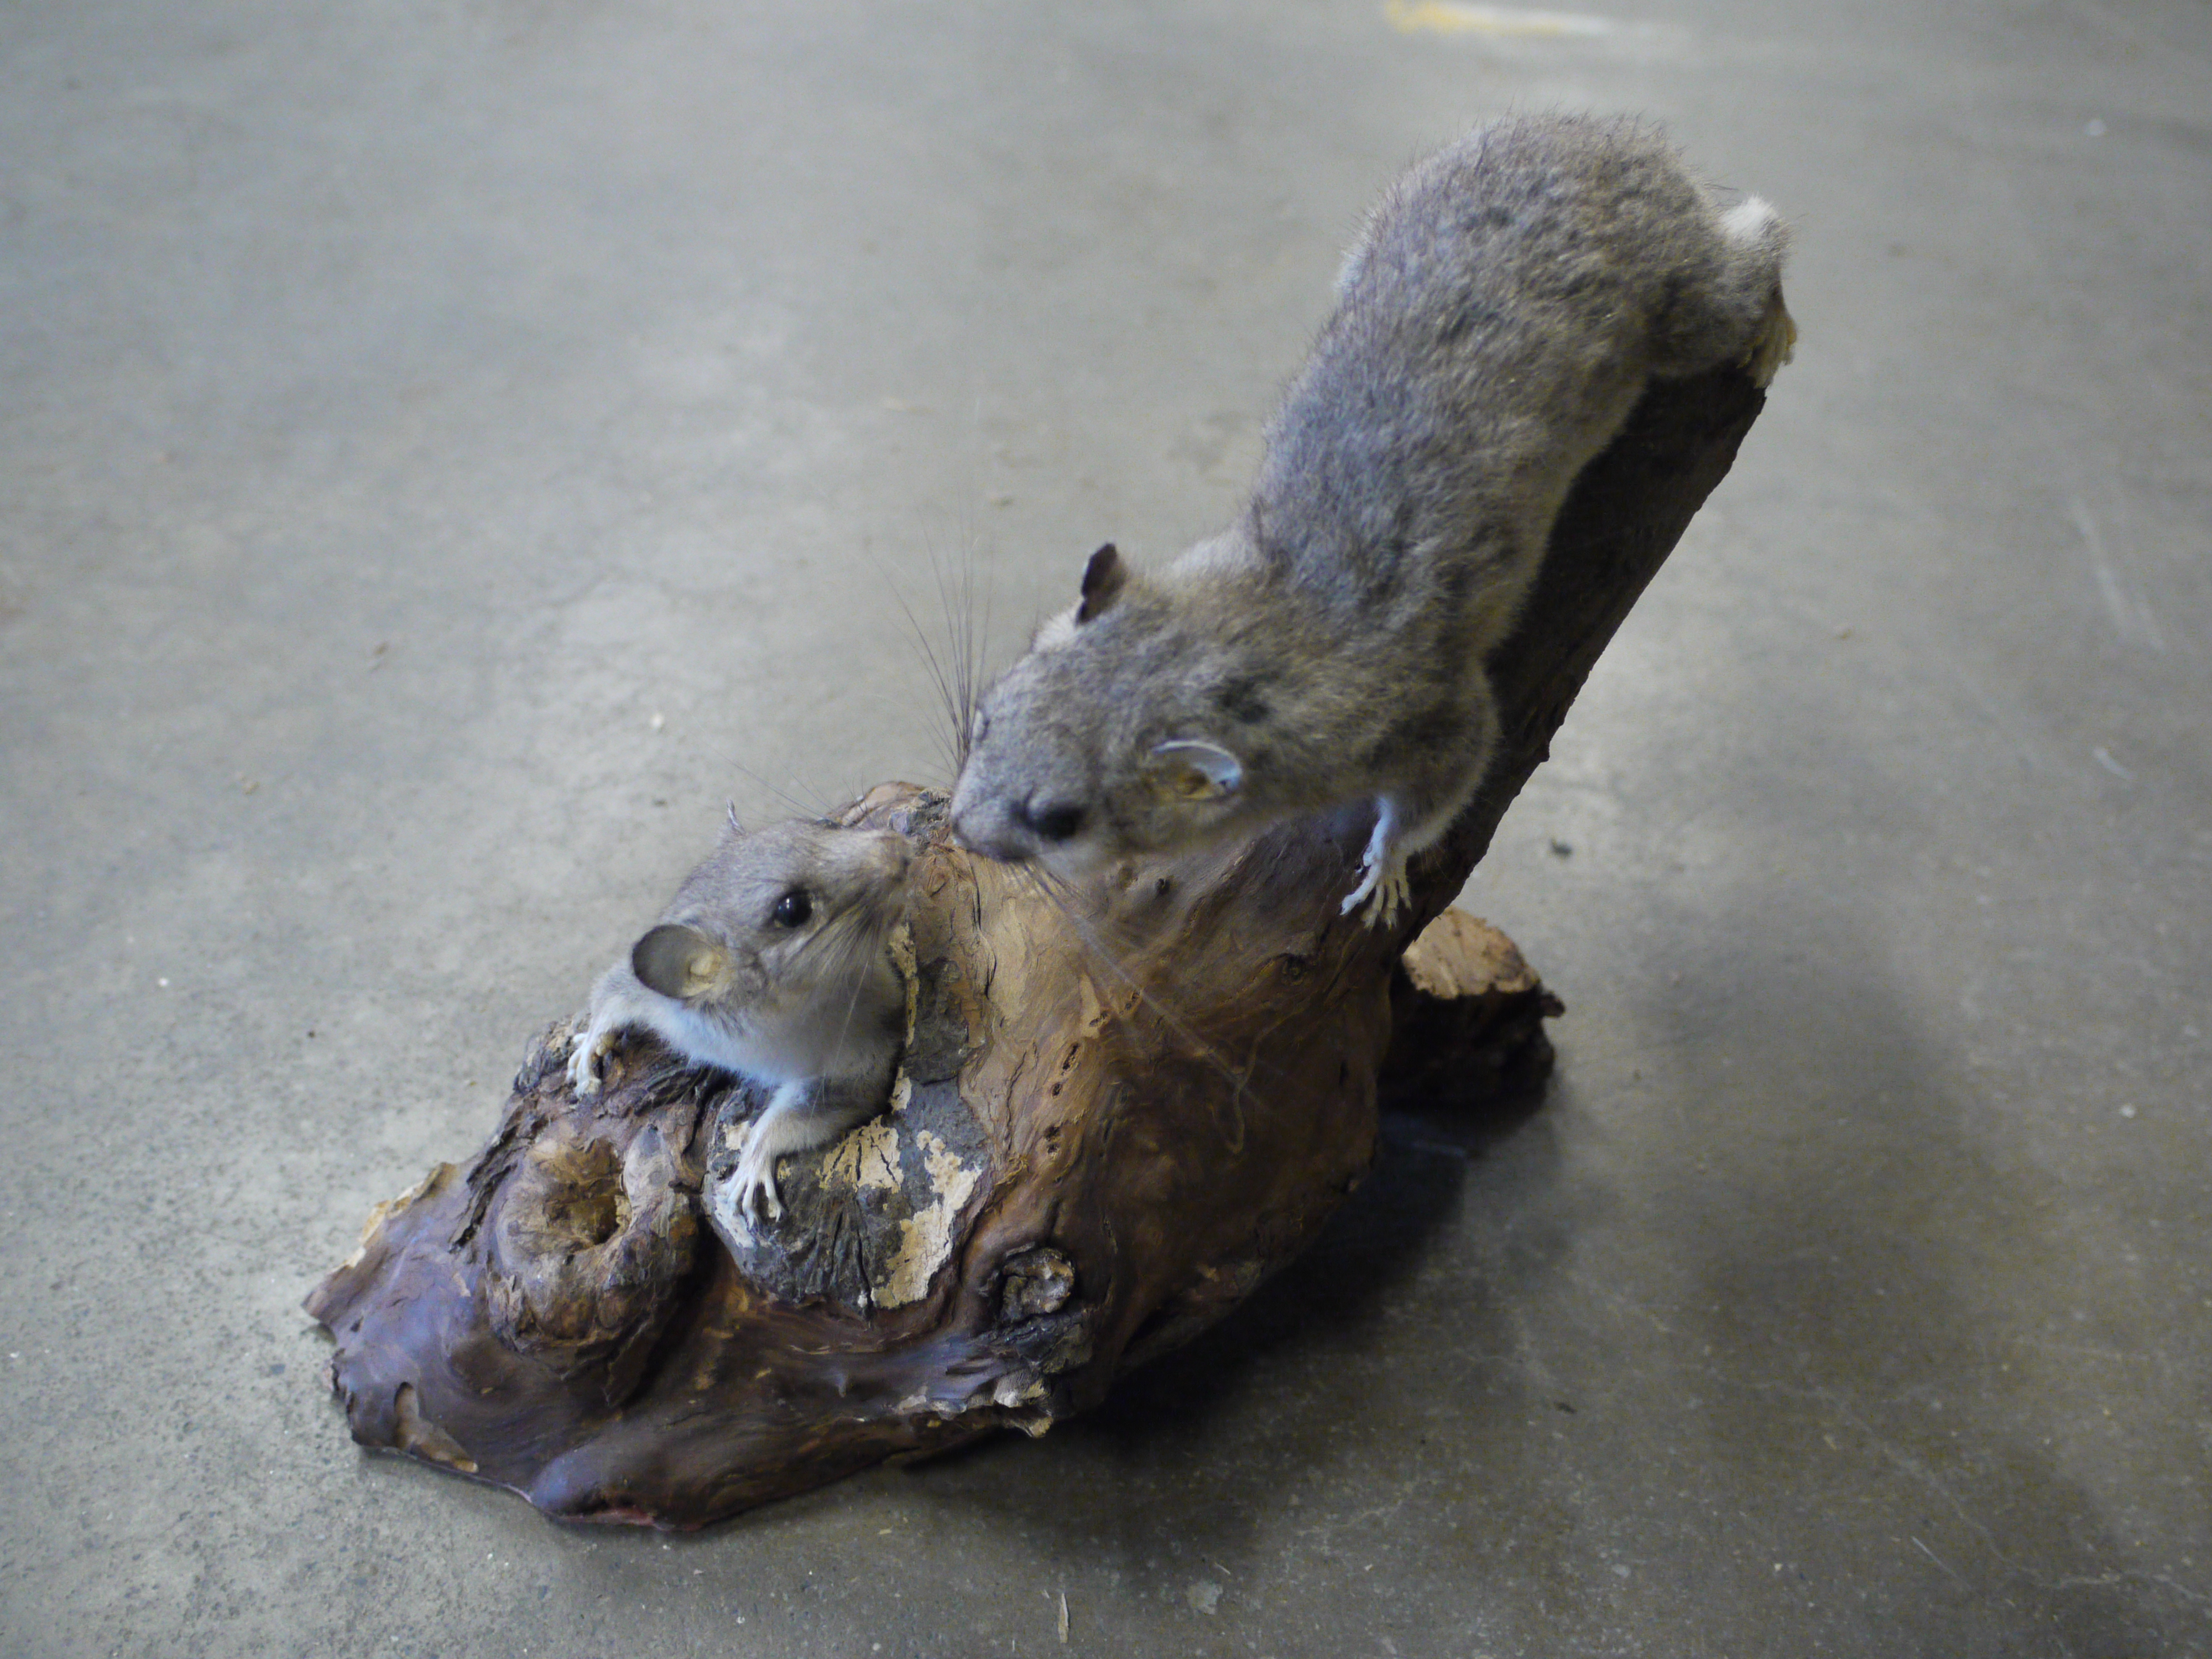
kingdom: Animalia
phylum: Chordata
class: Mammalia
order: Rodentia
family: Gliridae
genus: Glis
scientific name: Glis glis
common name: Fat dormouse
